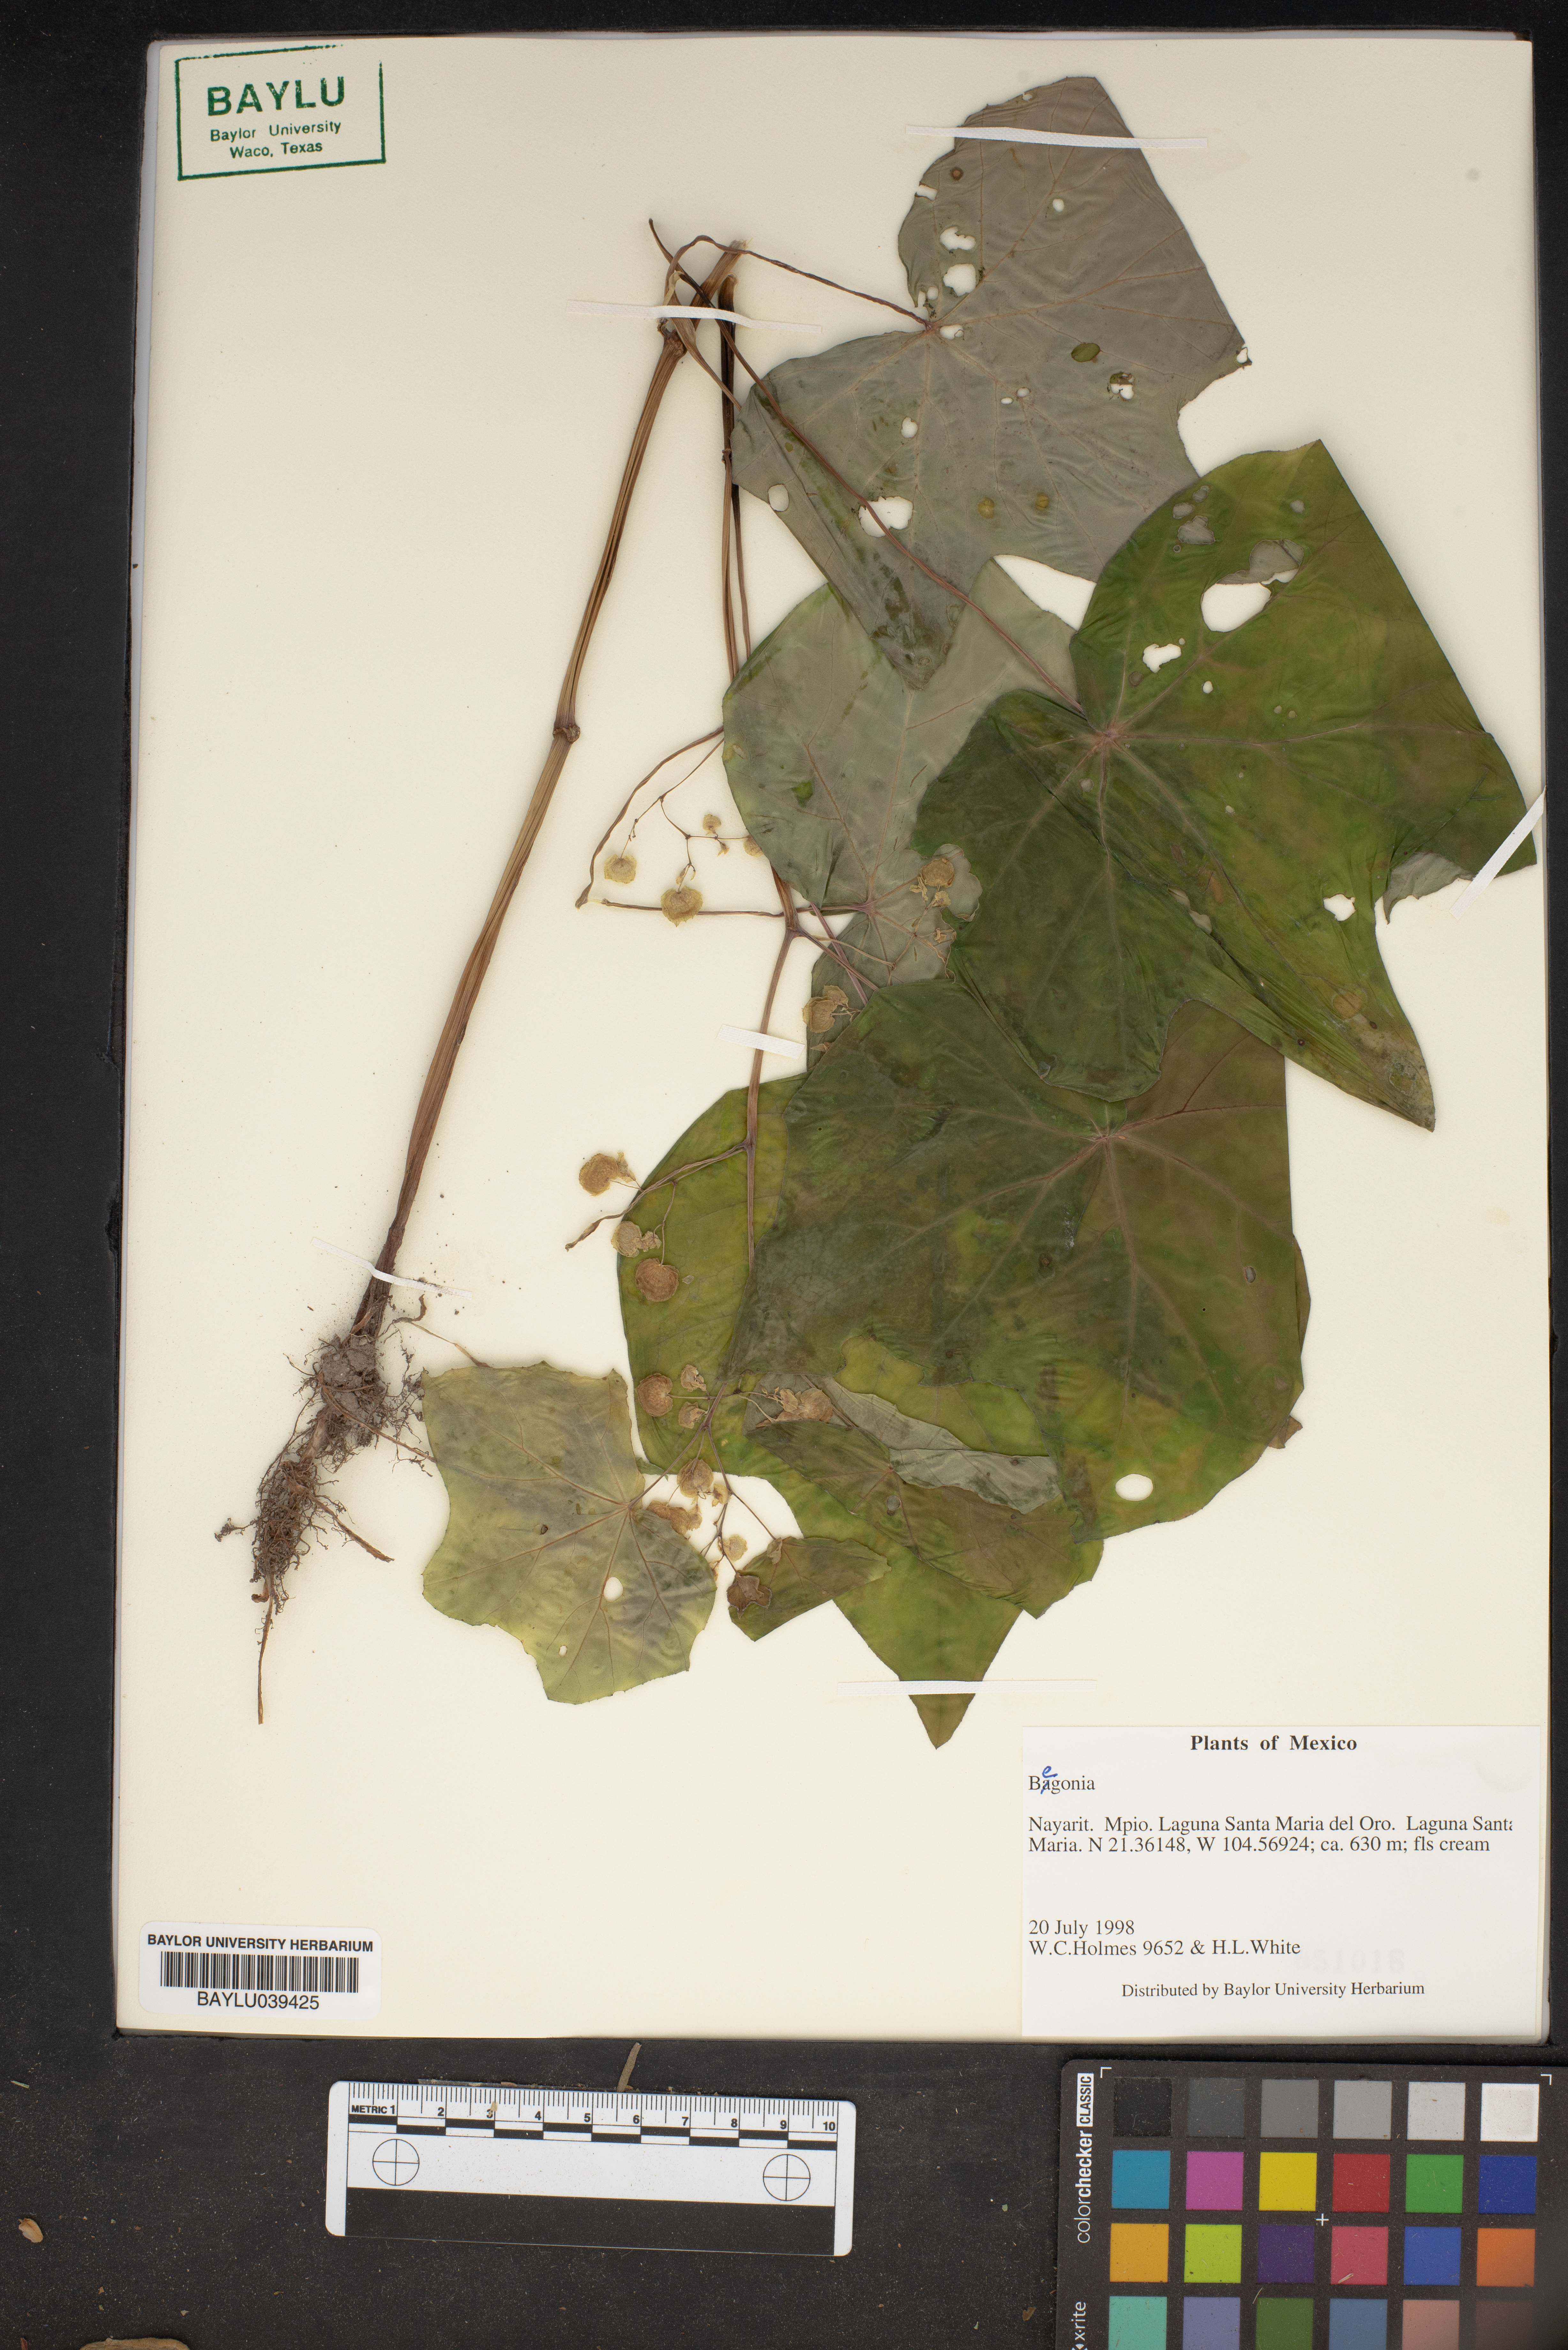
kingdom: Plantae
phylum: Tracheophyta
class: Magnoliopsida
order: Cucurbitales
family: Begoniaceae
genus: Begonia
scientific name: Begonia
